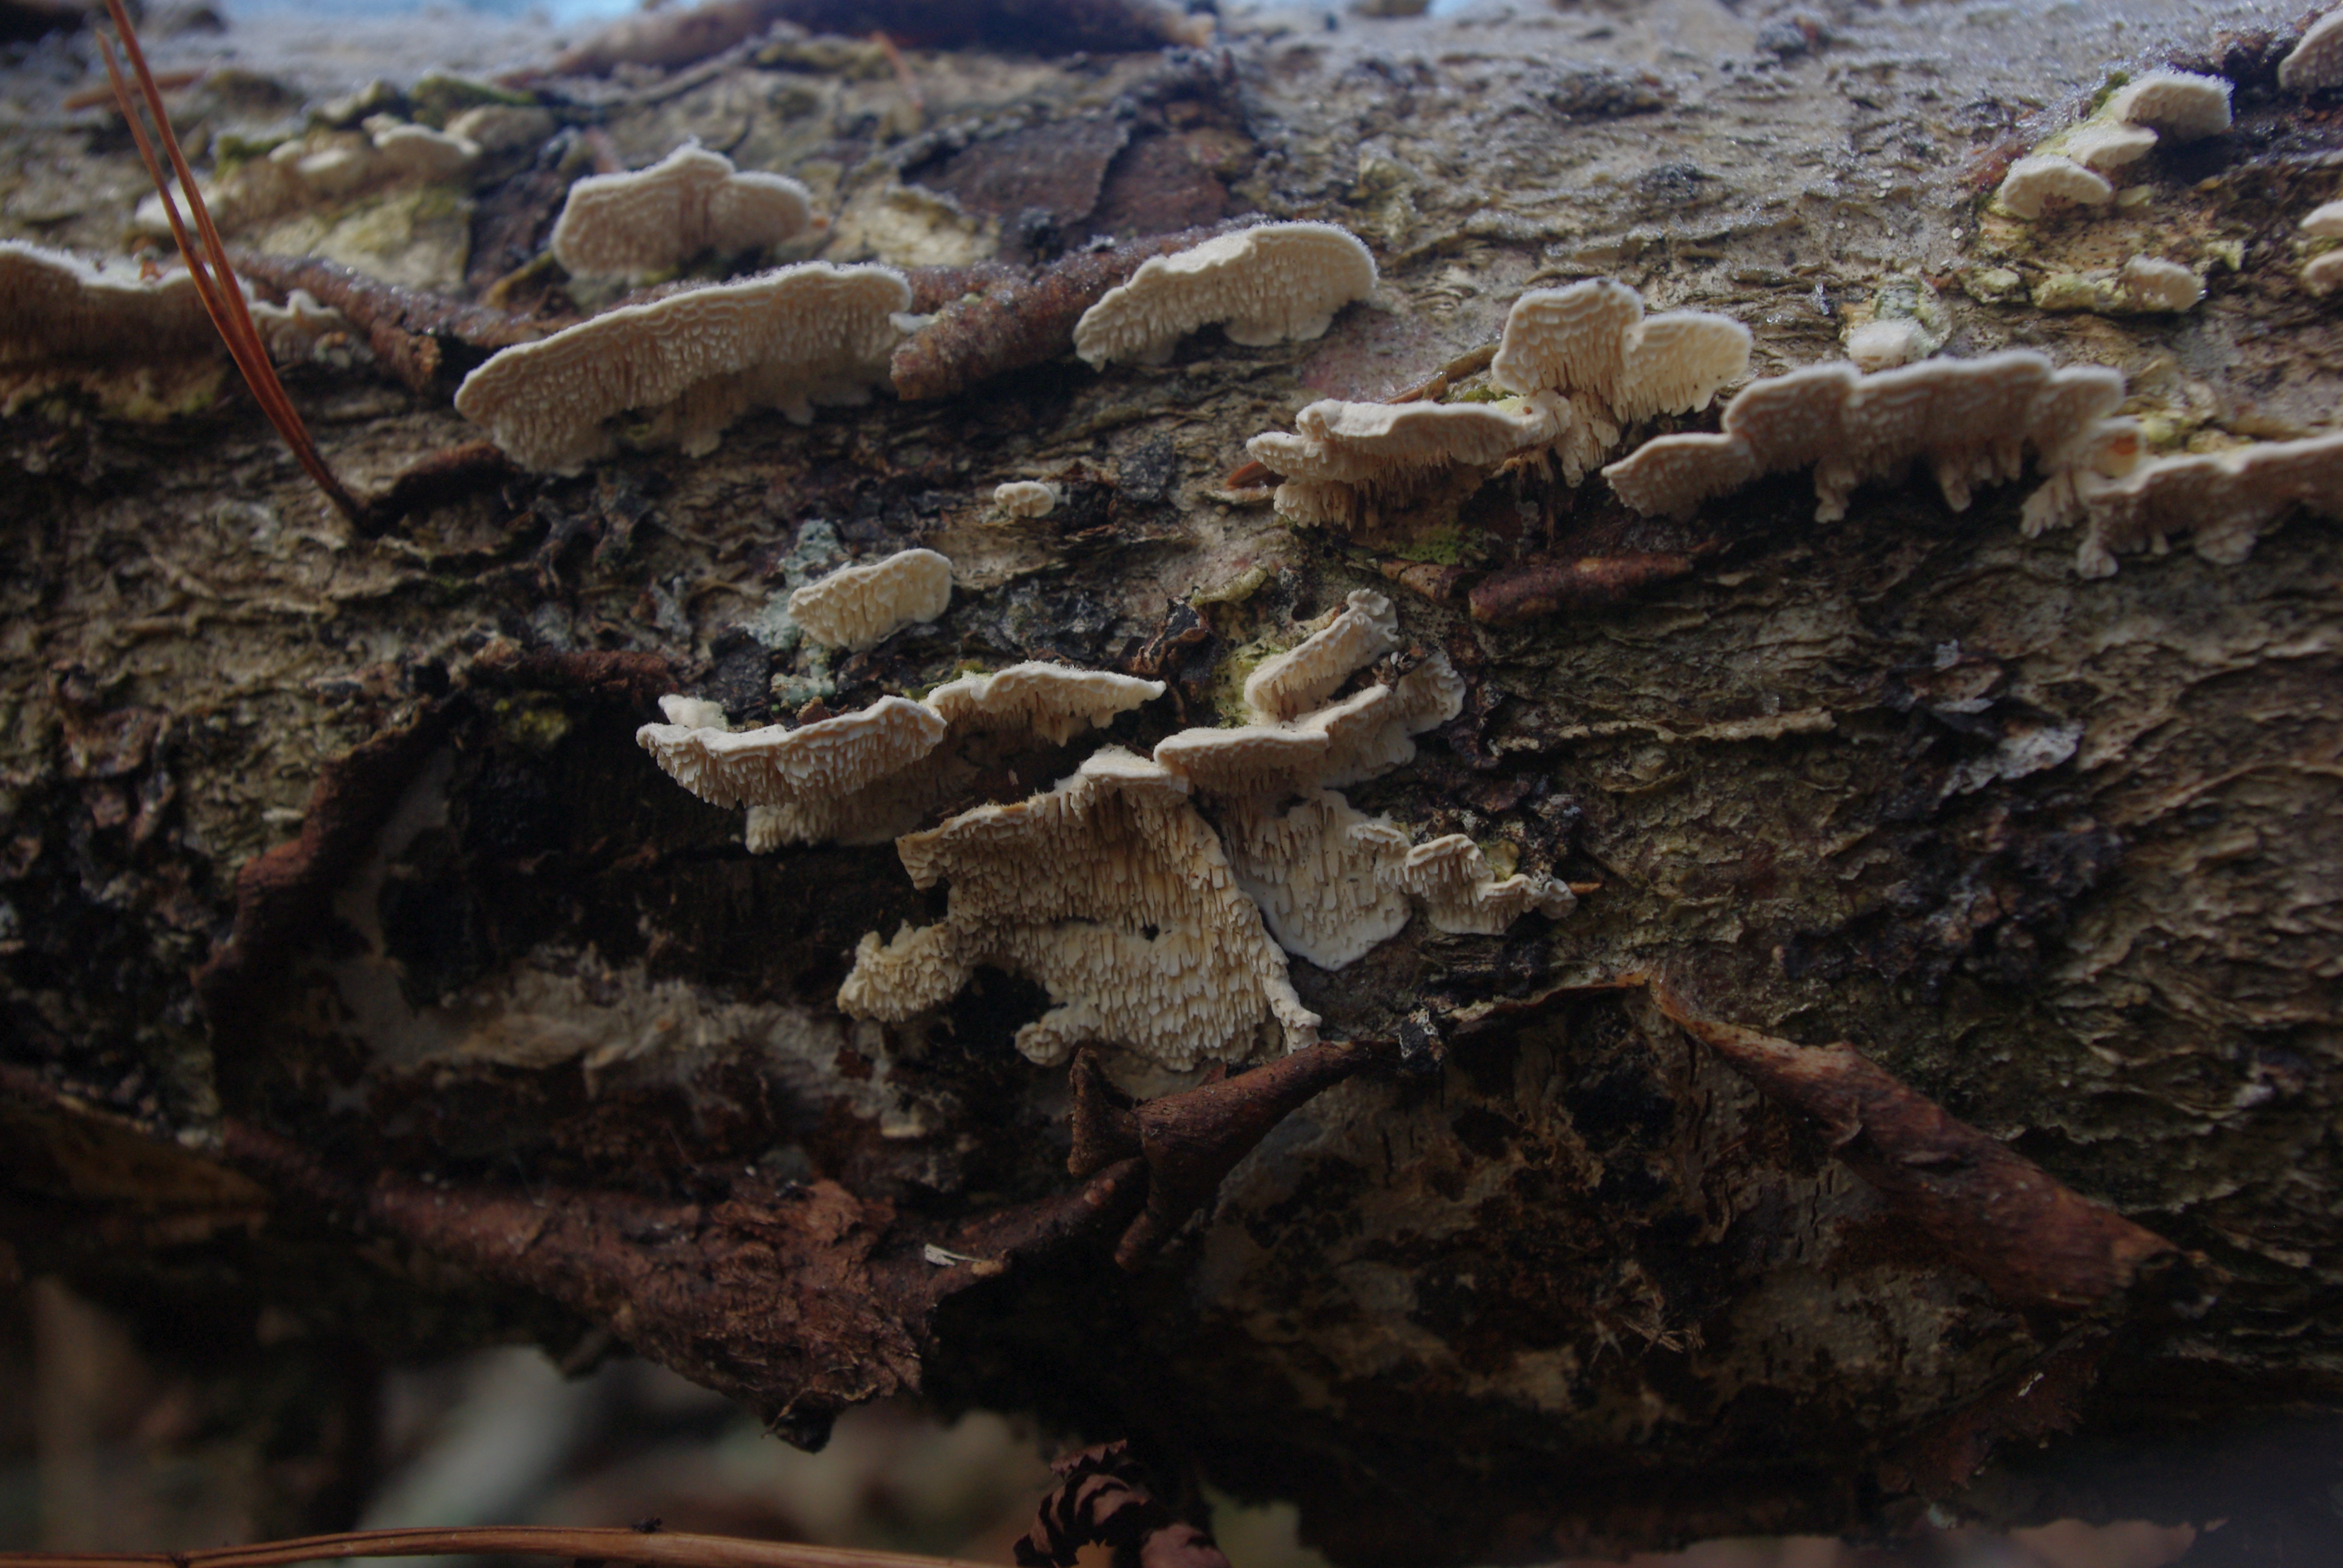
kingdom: Fungi
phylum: Basidiomycota
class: Agaricomycetes
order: Polyporales
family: Irpicaceae
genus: Irpex
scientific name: Irpex lacteus
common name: Milk-white toothed polypore
